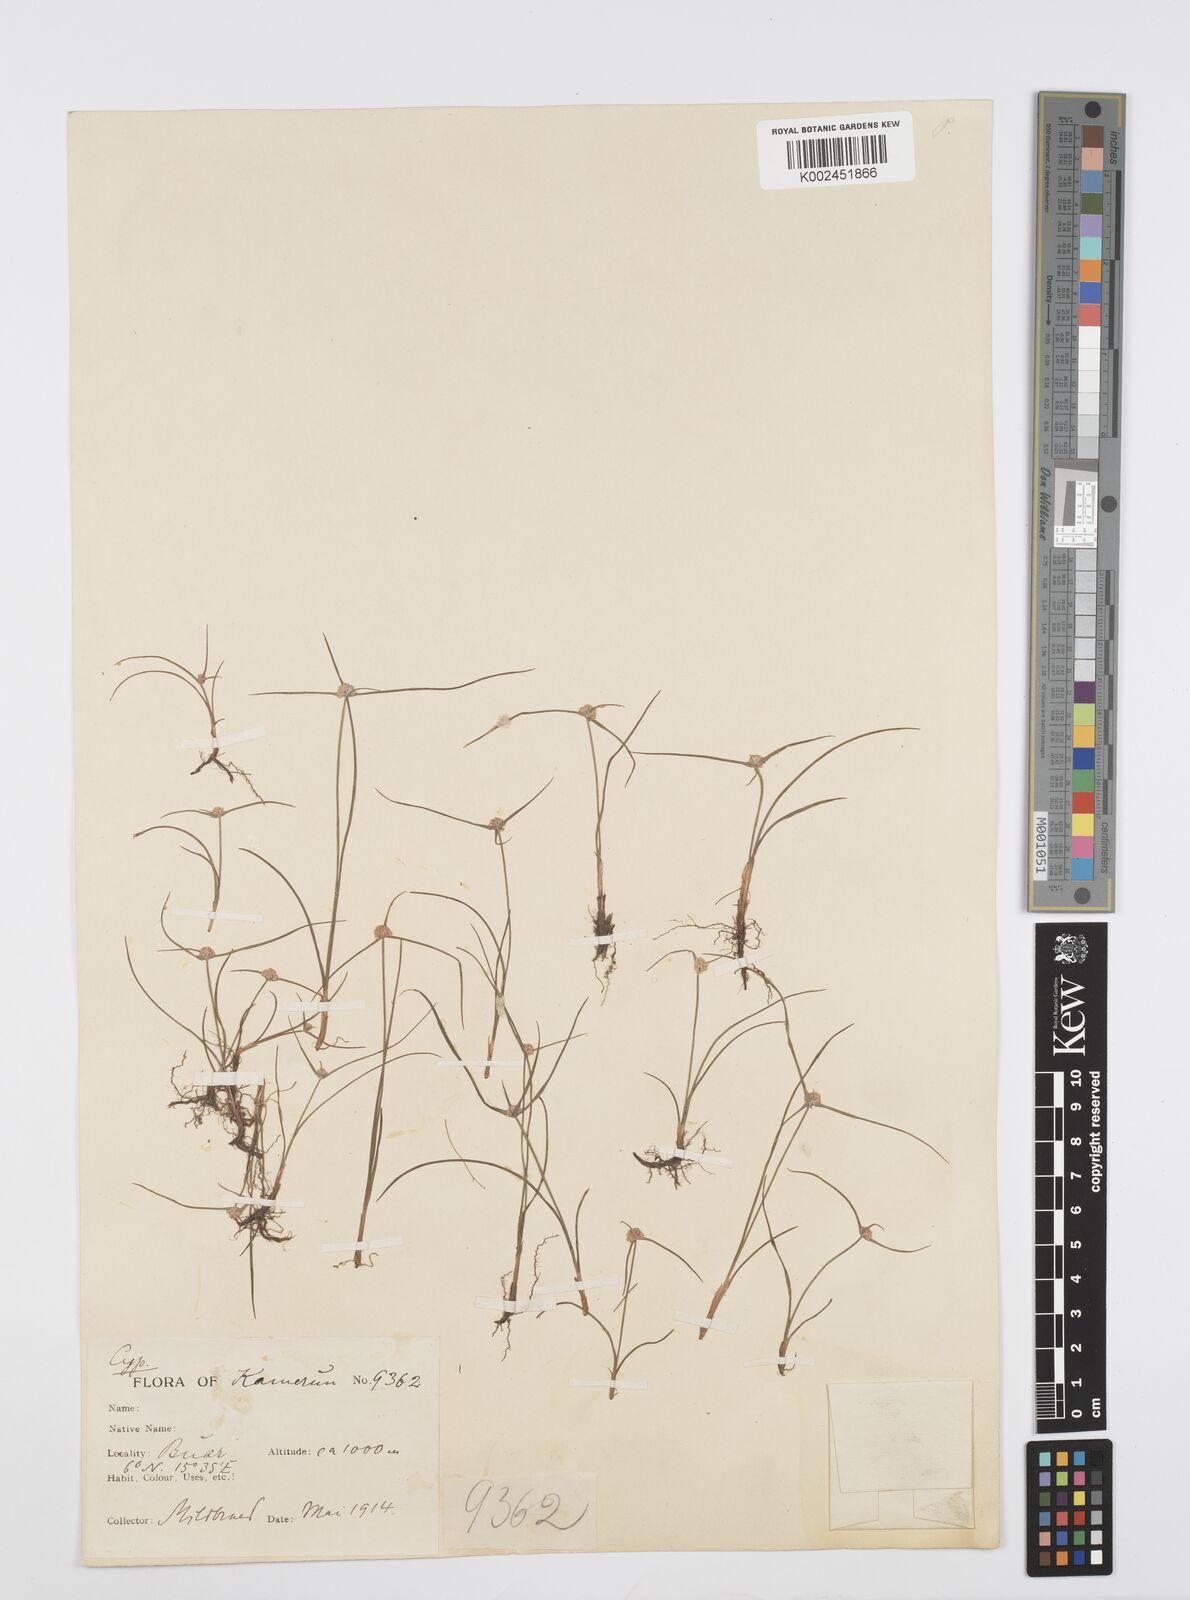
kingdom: Plantae
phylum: Tracheophyta
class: Liliopsida
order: Poales
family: Cyperaceae
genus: Cyperus
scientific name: Cyperus microcephalus
